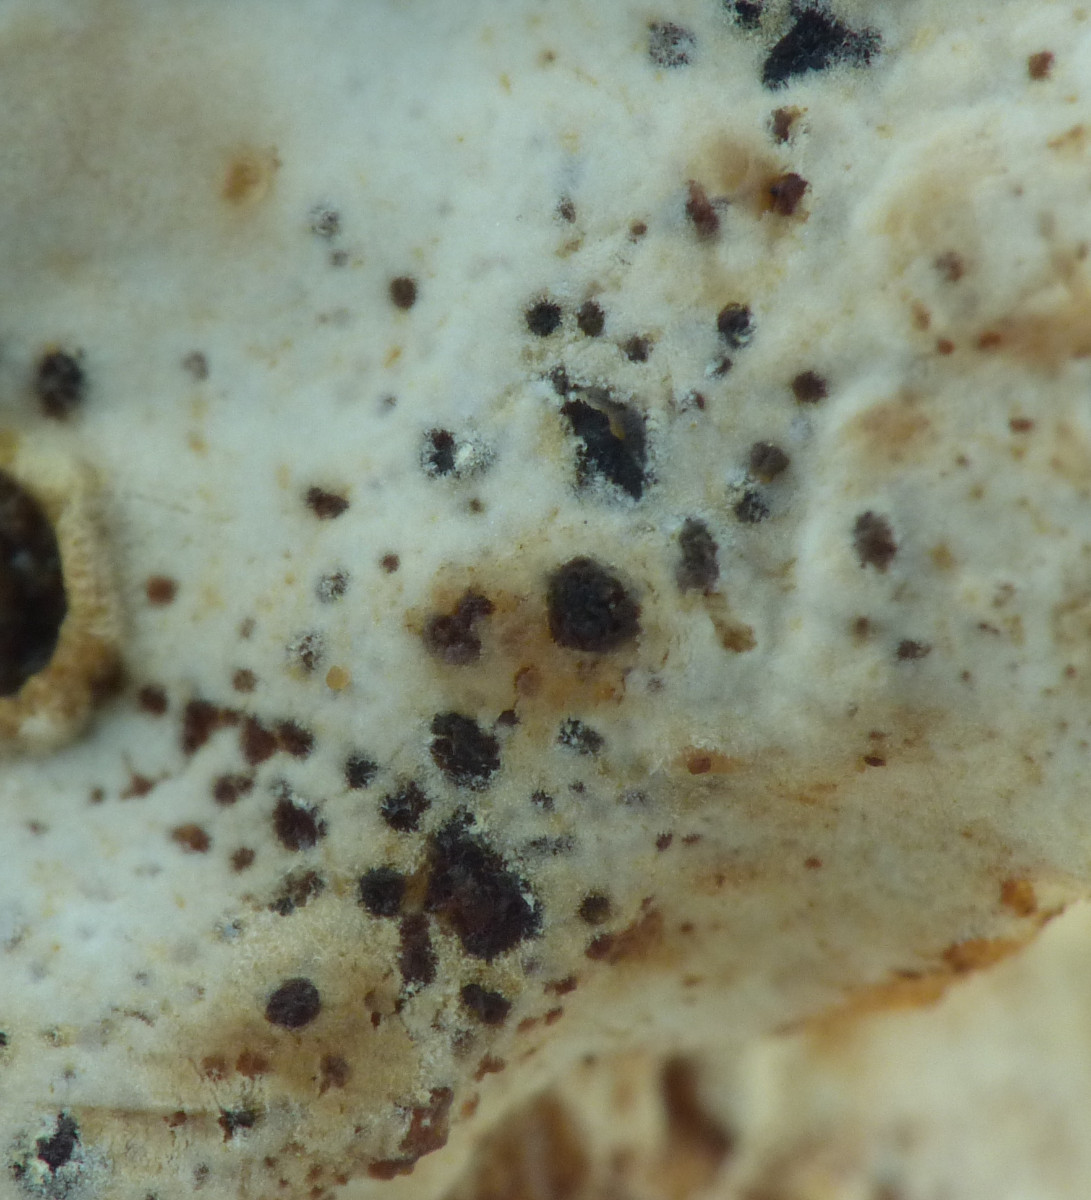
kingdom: Fungi
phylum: Ascomycota
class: Eurotiomycetes
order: Chaetothyriales
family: Herpotrichiellaceae
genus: Capronia
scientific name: Capronia porothelia
